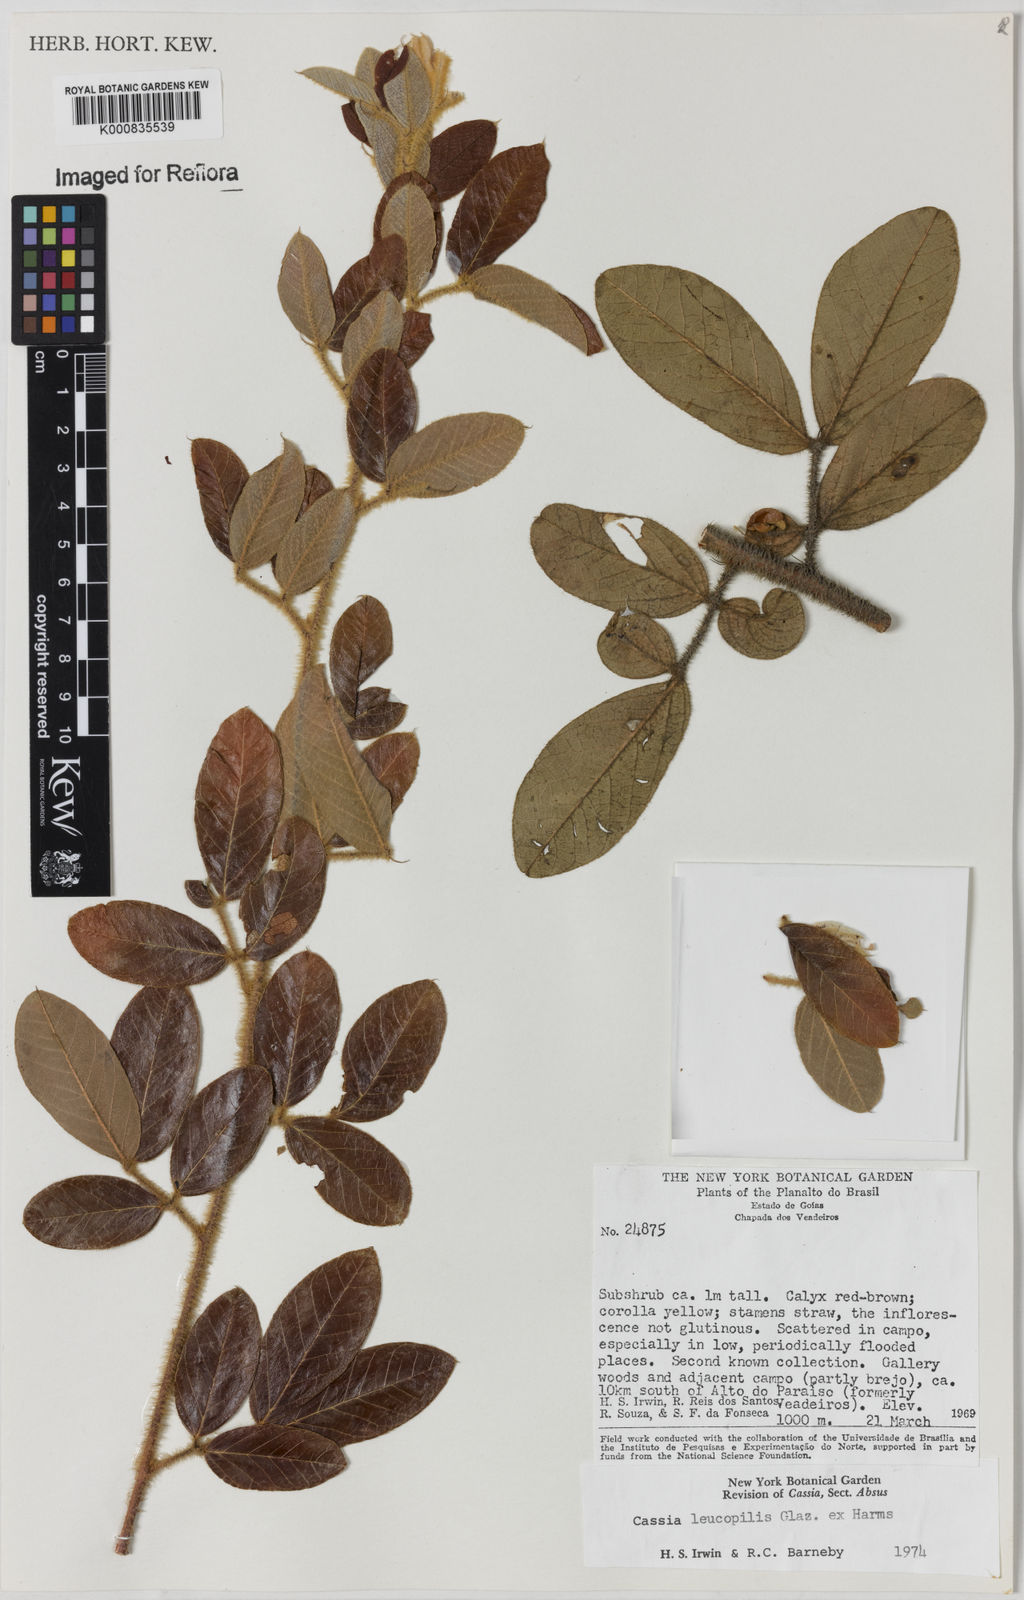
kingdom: Plantae
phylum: Tracheophyta
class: Magnoliopsida
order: Fabales
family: Fabaceae
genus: Chamaecrista
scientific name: Chamaecrista leucopilis
